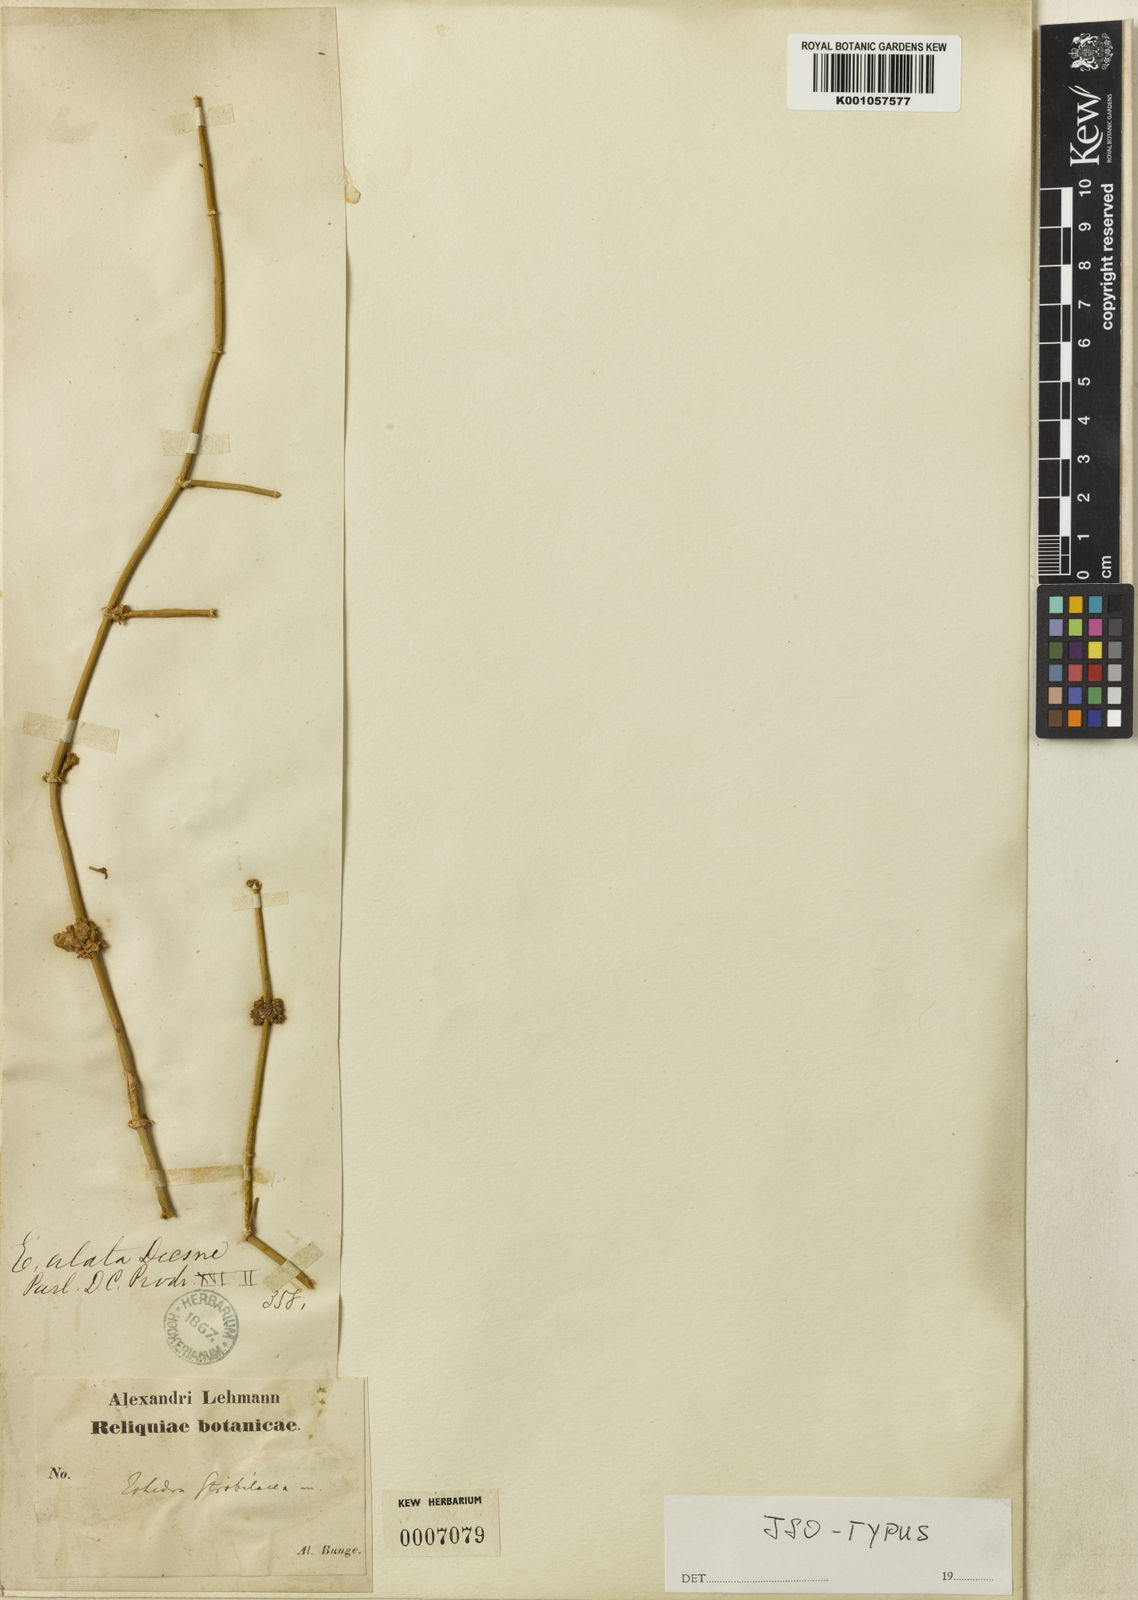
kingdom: Plantae
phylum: Tracheophyta
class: Gnetopsida
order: Ephedrales
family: Ephedraceae
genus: Ephedra
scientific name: Ephedra strobilacea
